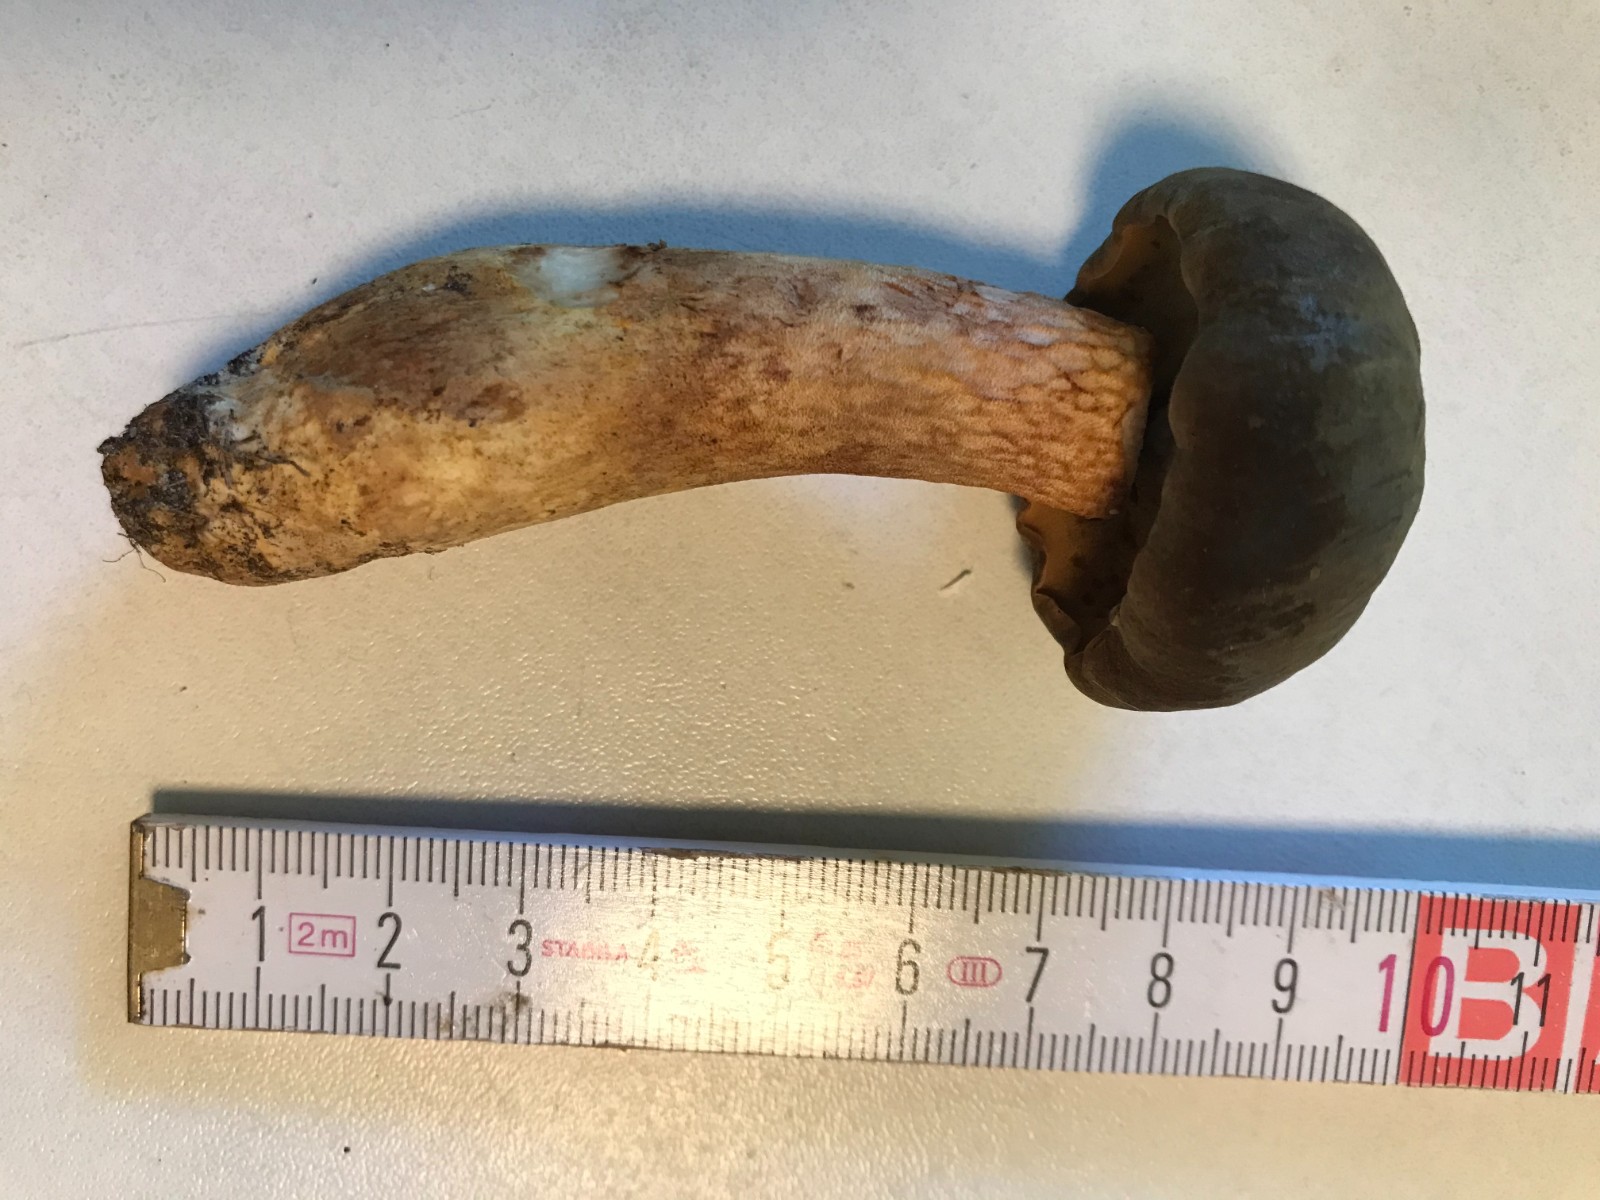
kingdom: Fungi
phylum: Basidiomycota
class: Agaricomycetes
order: Boletales
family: Boletaceae
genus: Xerocomus
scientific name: Xerocomus
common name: filtrørhat
